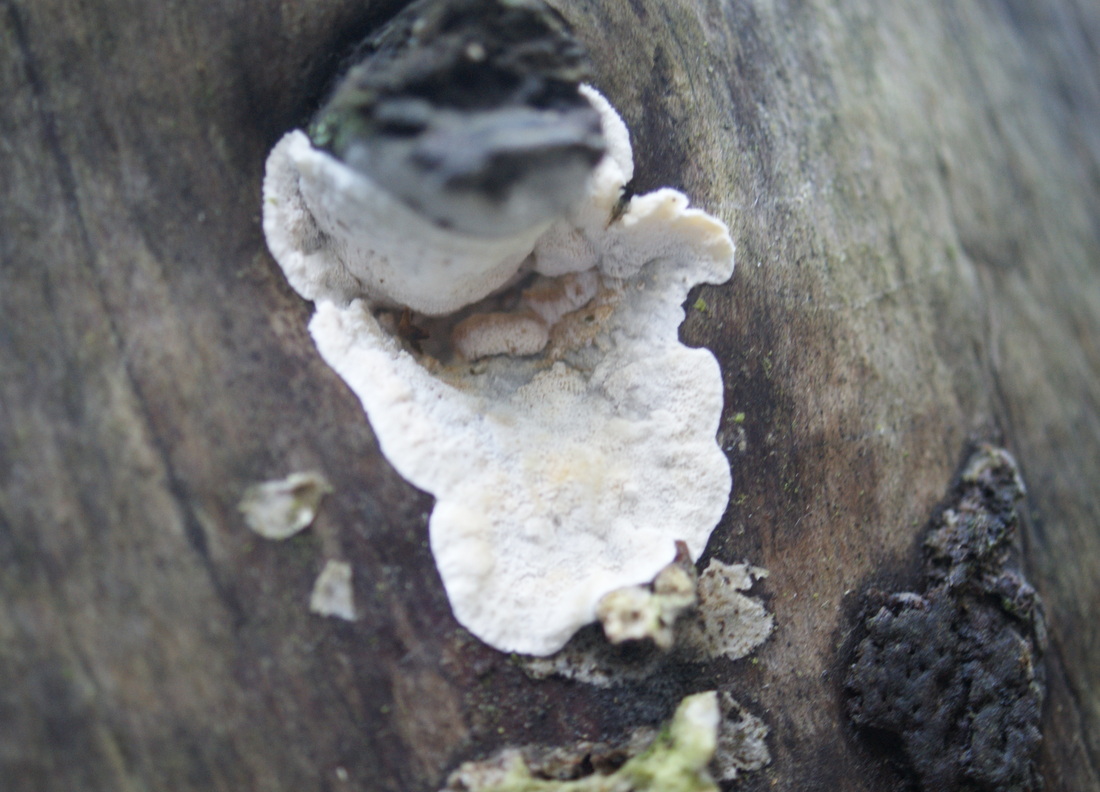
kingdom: Fungi
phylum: Basidiomycota
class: Agaricomycetes
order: Polyporales
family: Incrustoporiaceae
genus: Skeletocutis
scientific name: Skeletocutis amorpha
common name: orange krystalporesvamp
